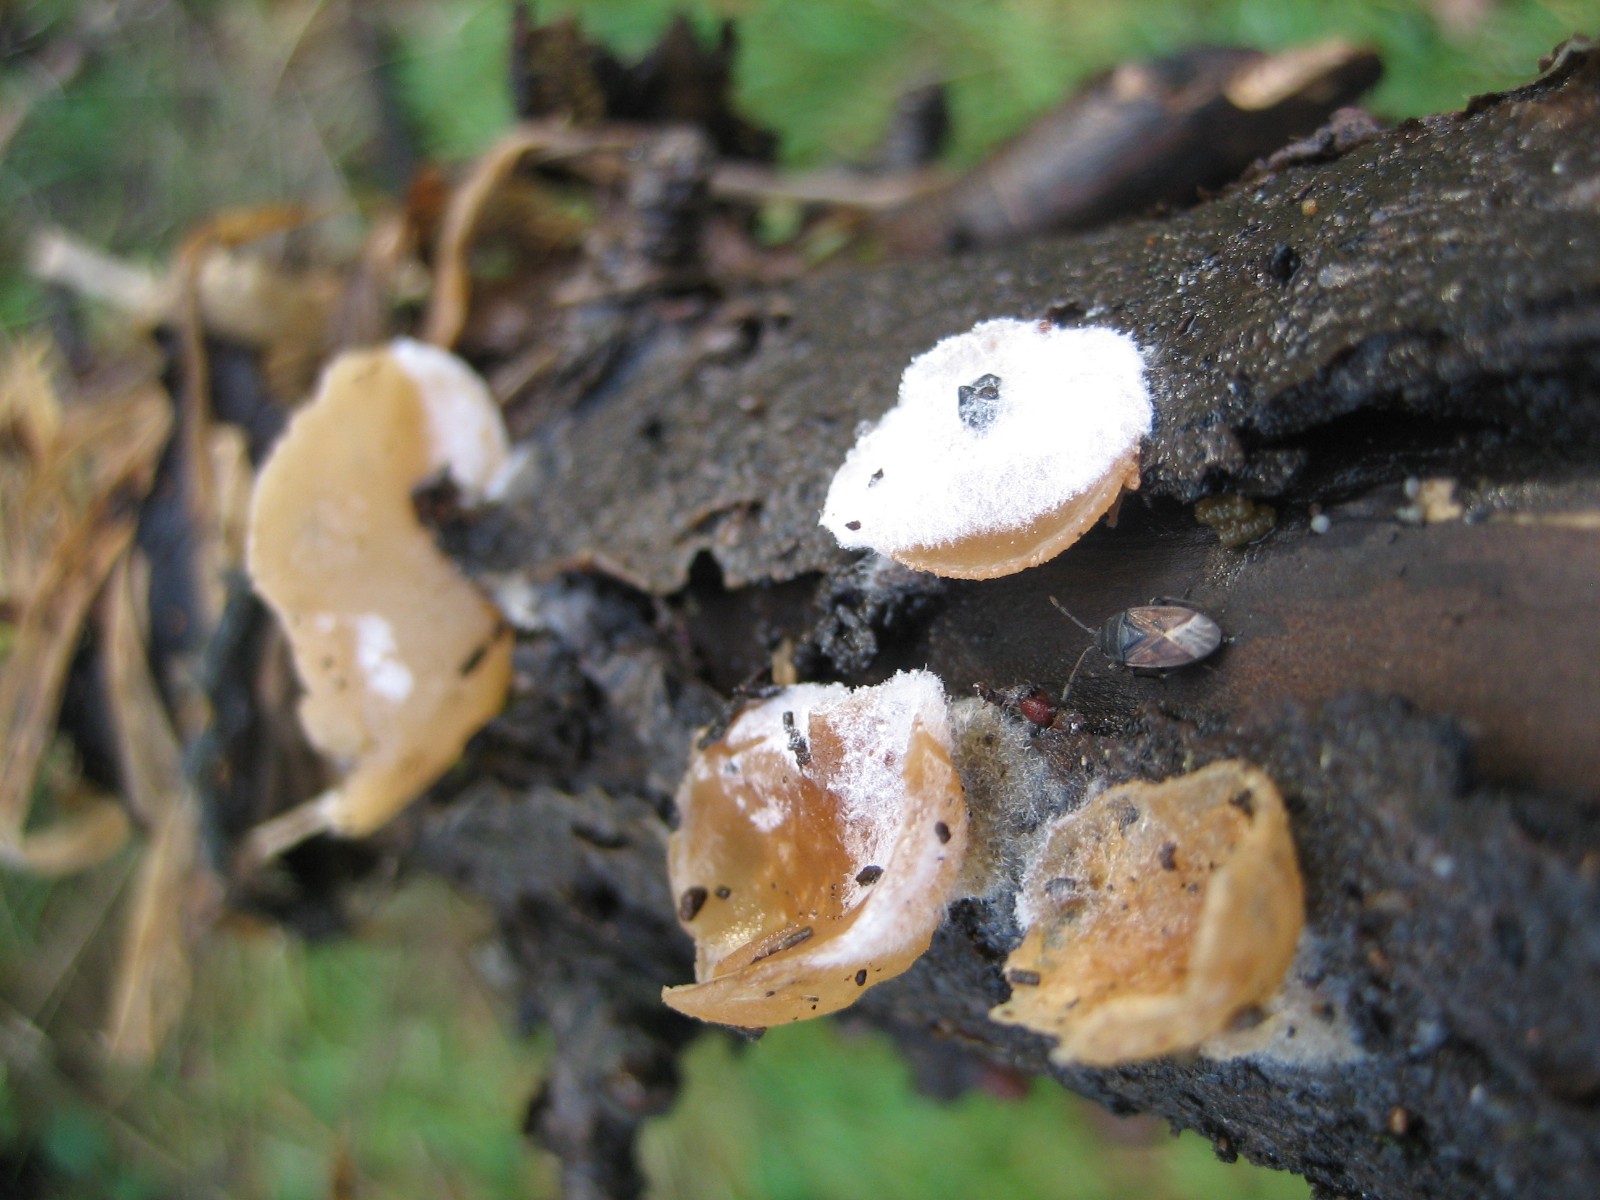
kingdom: Fungi
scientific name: Fungi
